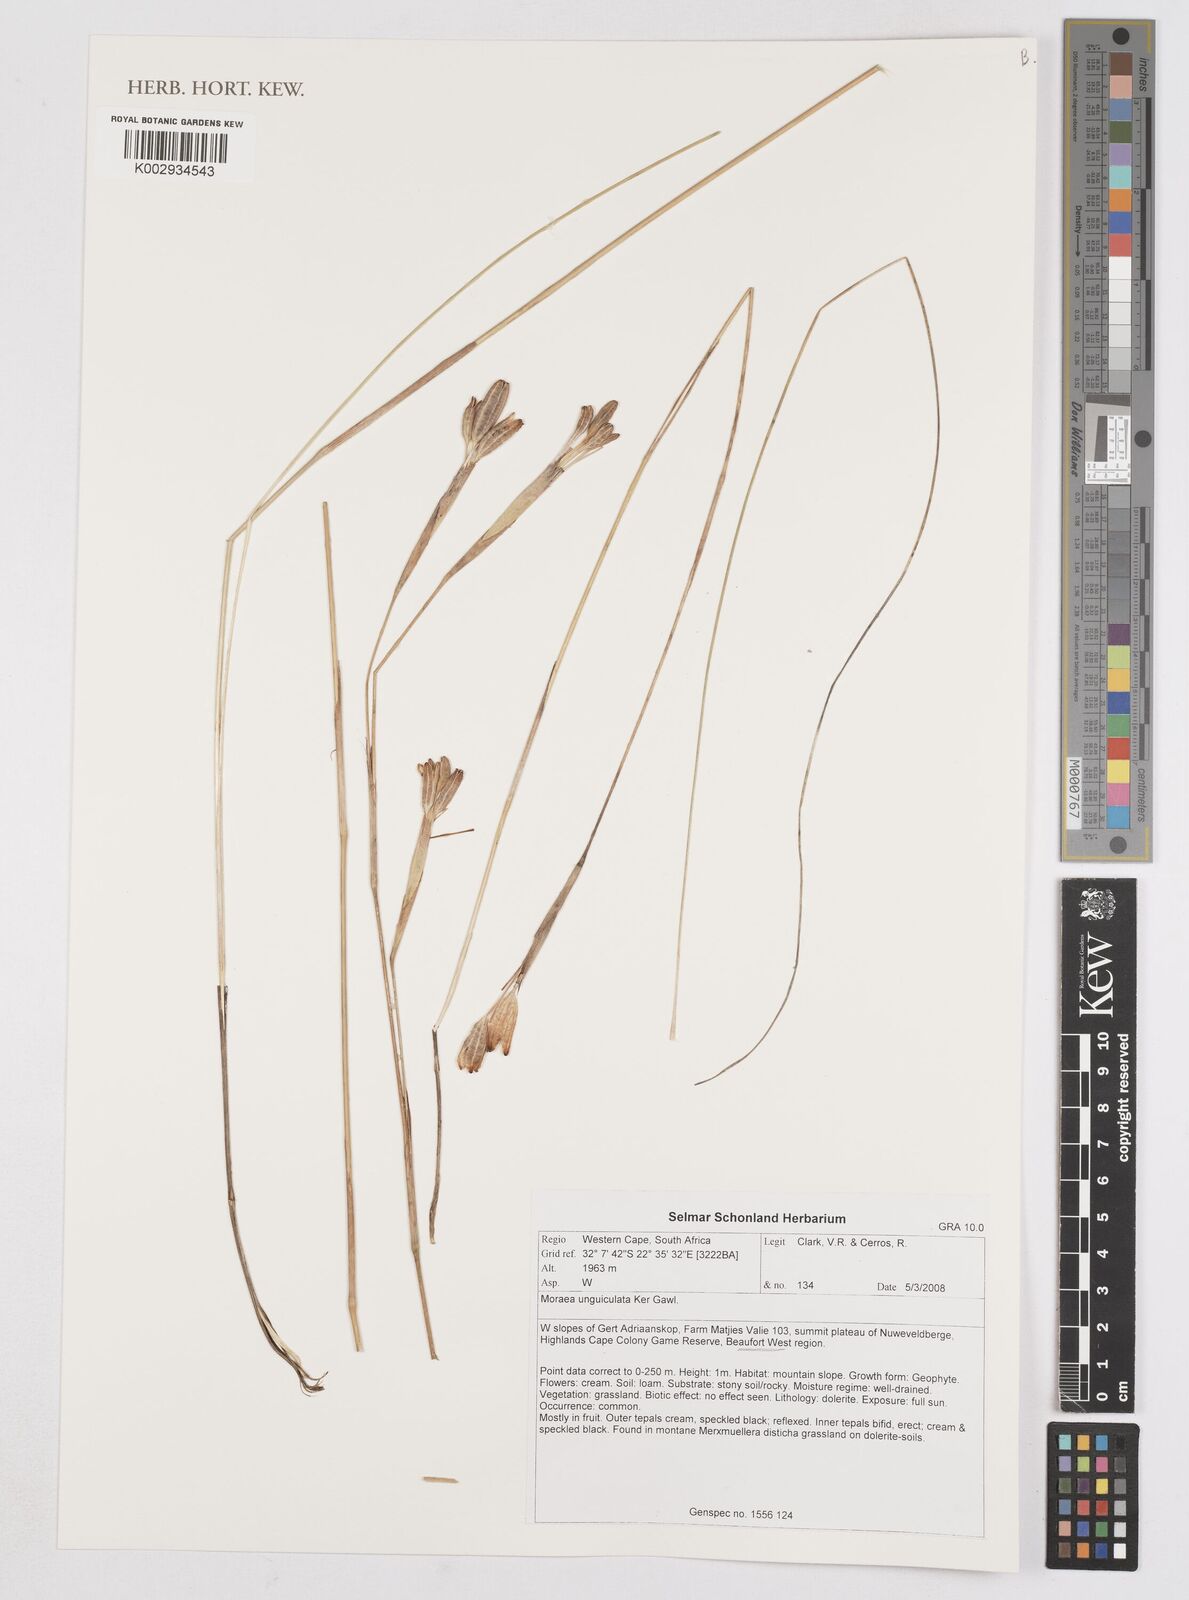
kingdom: Plantae
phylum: Tracheophyta
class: Liliopsida
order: Asparagales
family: Iridaceae
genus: Moraea
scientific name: Moraea unguiculata
